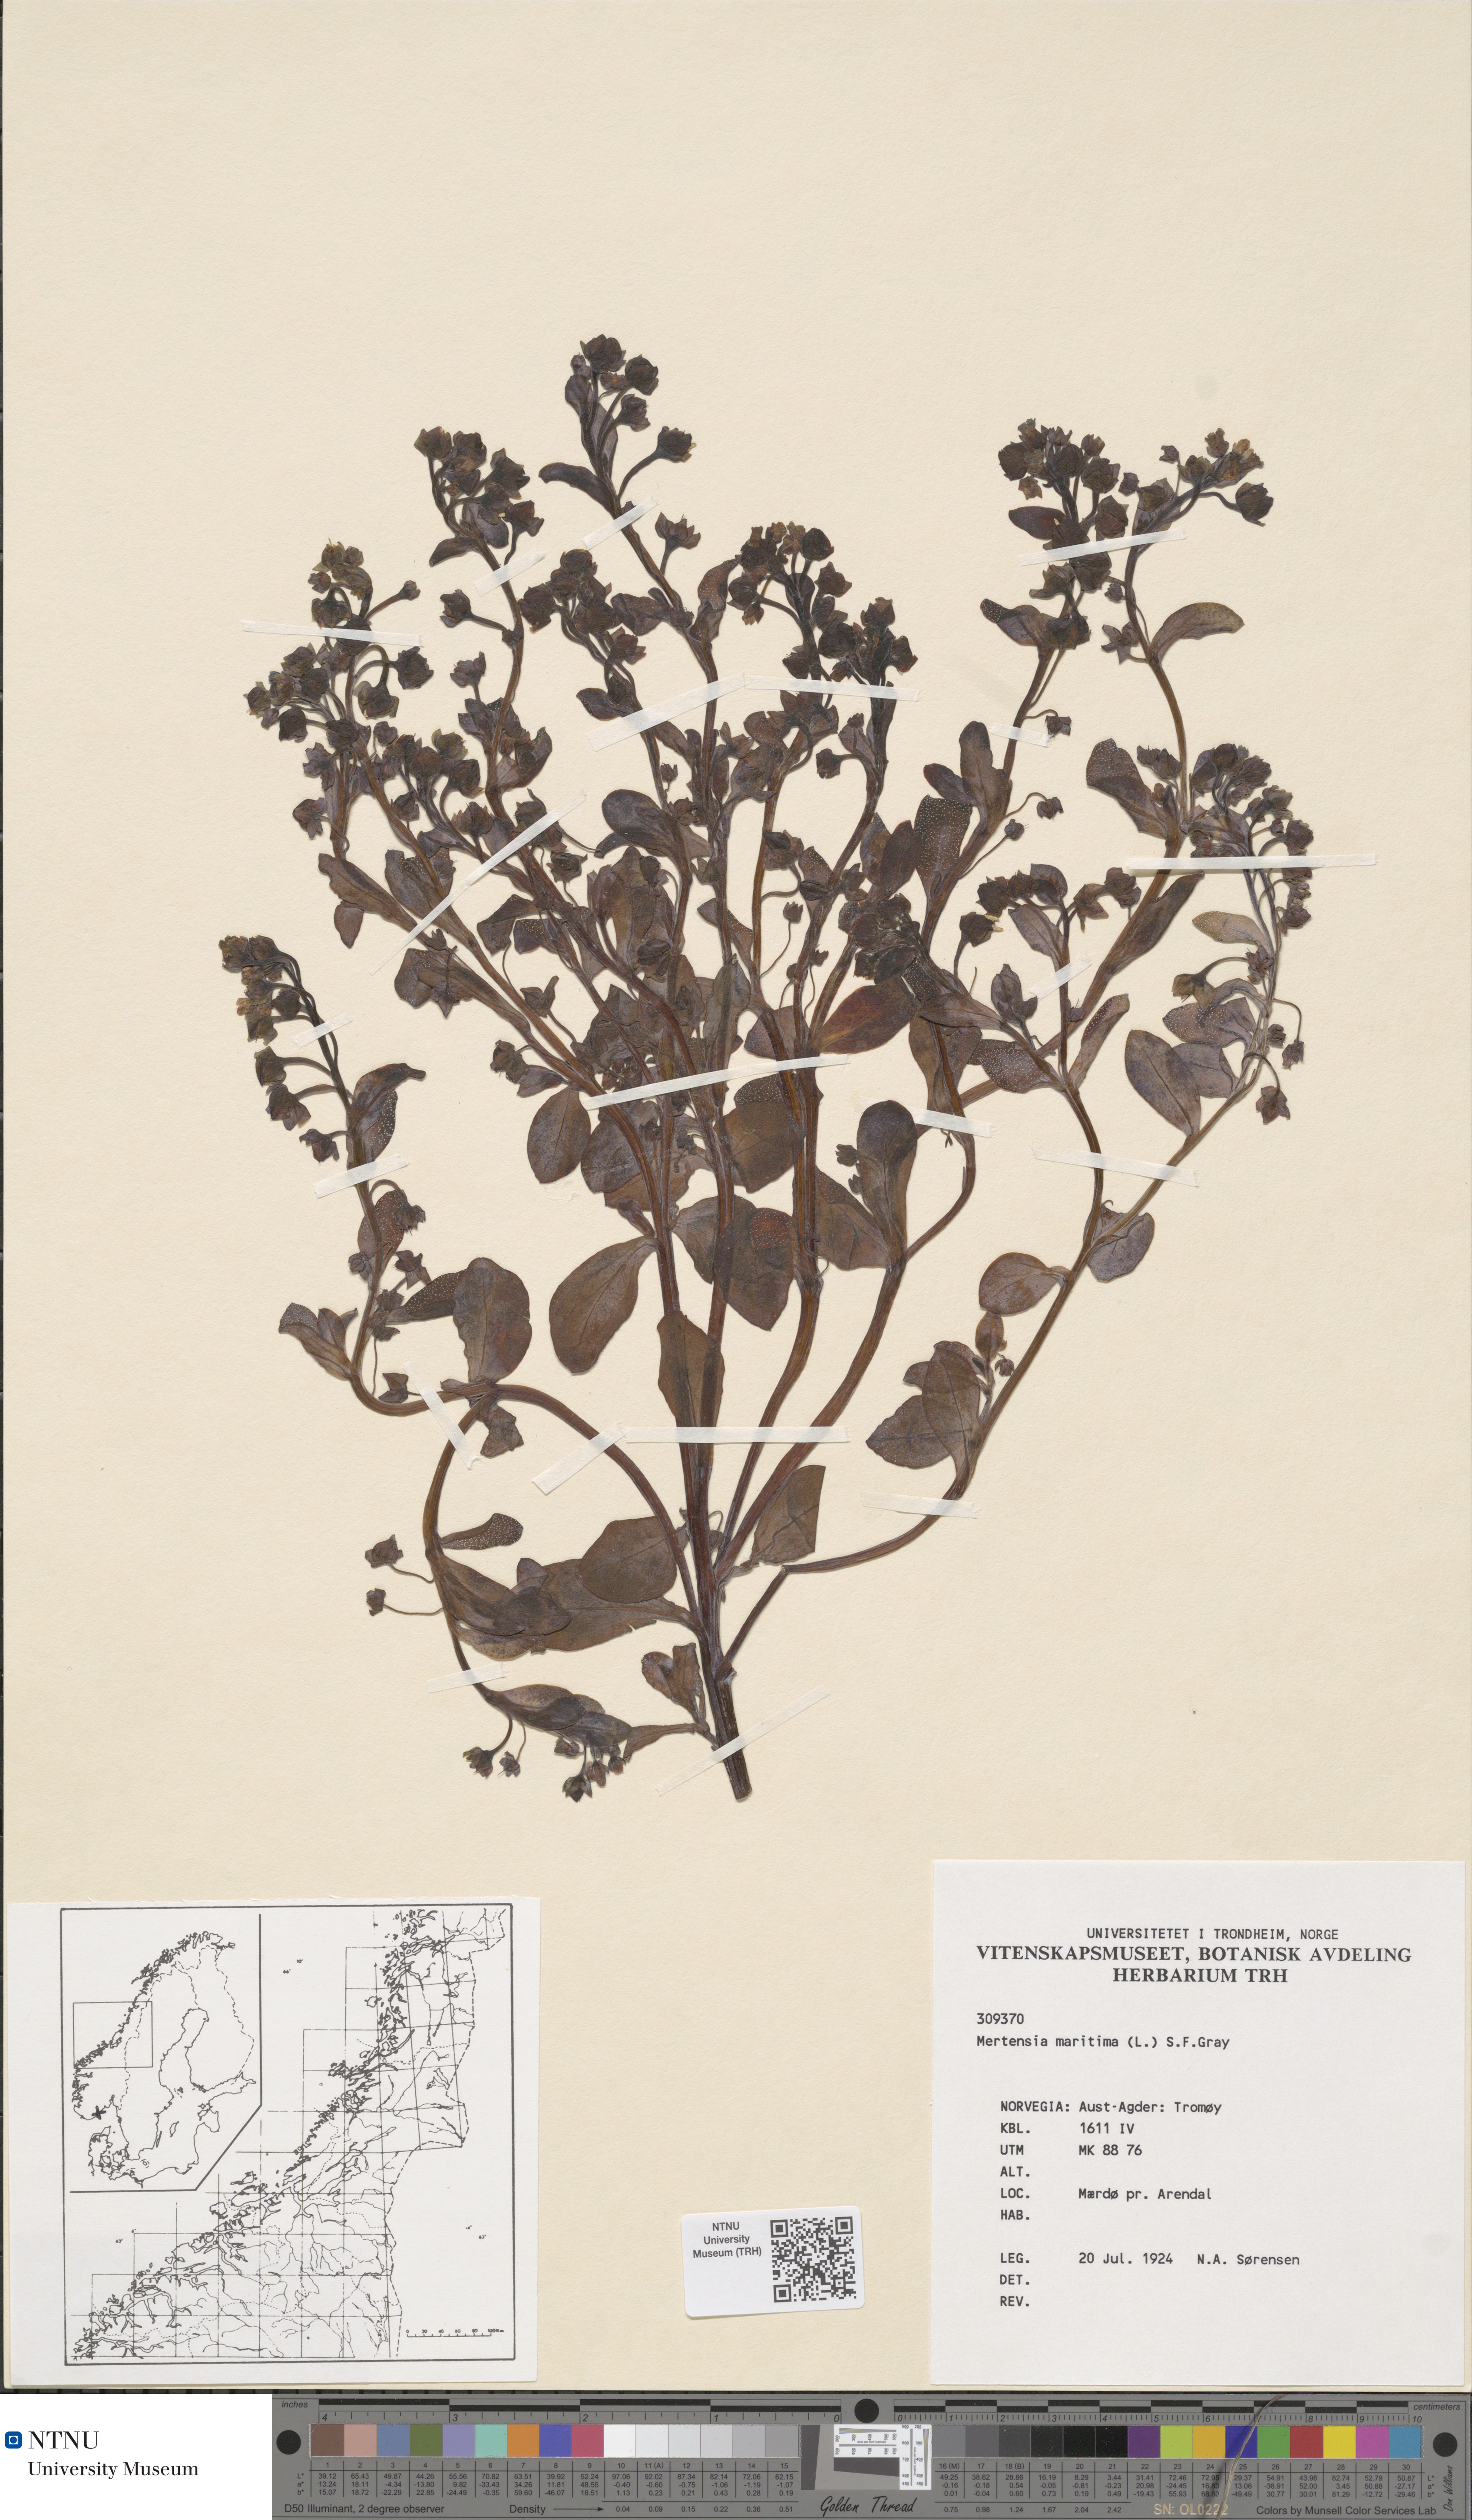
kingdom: Plantae
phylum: Tracheophyta
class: Magnoliopsida
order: Boraginales
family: Boraginaceae
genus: Mertensia
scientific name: Mertensia maritima
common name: Oysterplant
